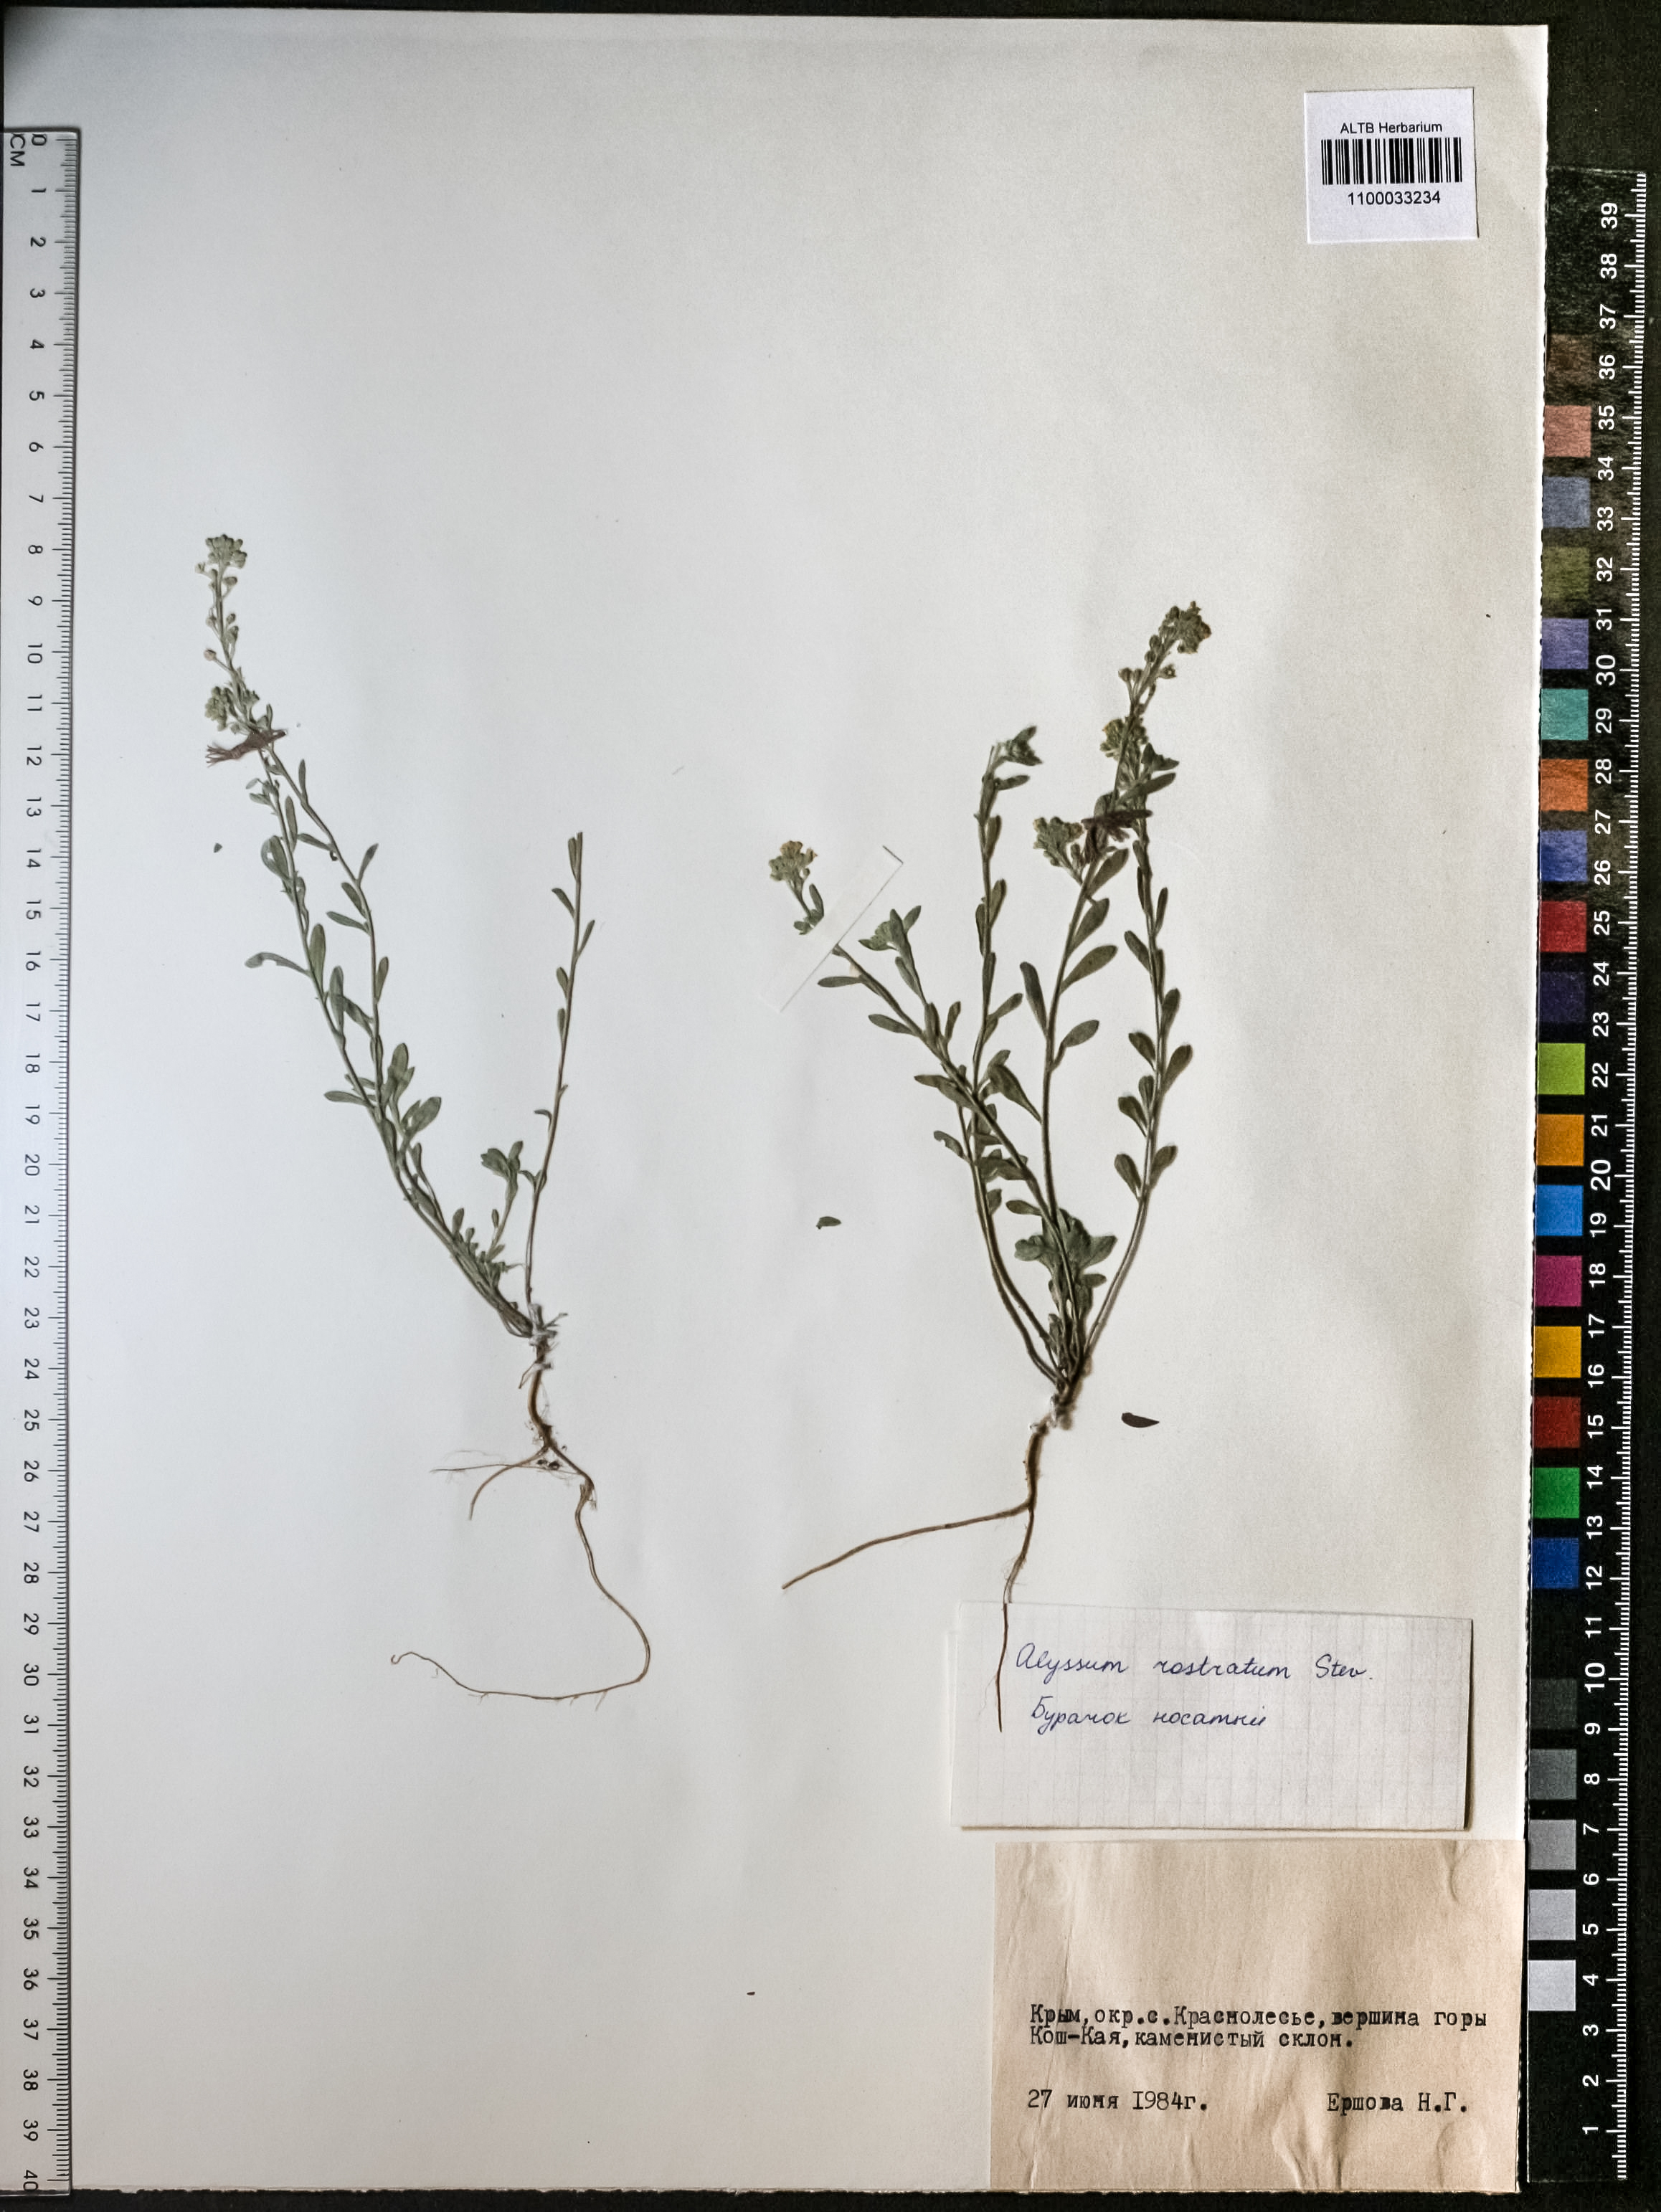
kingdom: Plantae
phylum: Tracheophyta
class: Magnoliopsida
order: Brassicales
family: Brassicaceae
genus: Alyssum
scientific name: Alyssum rostratum
